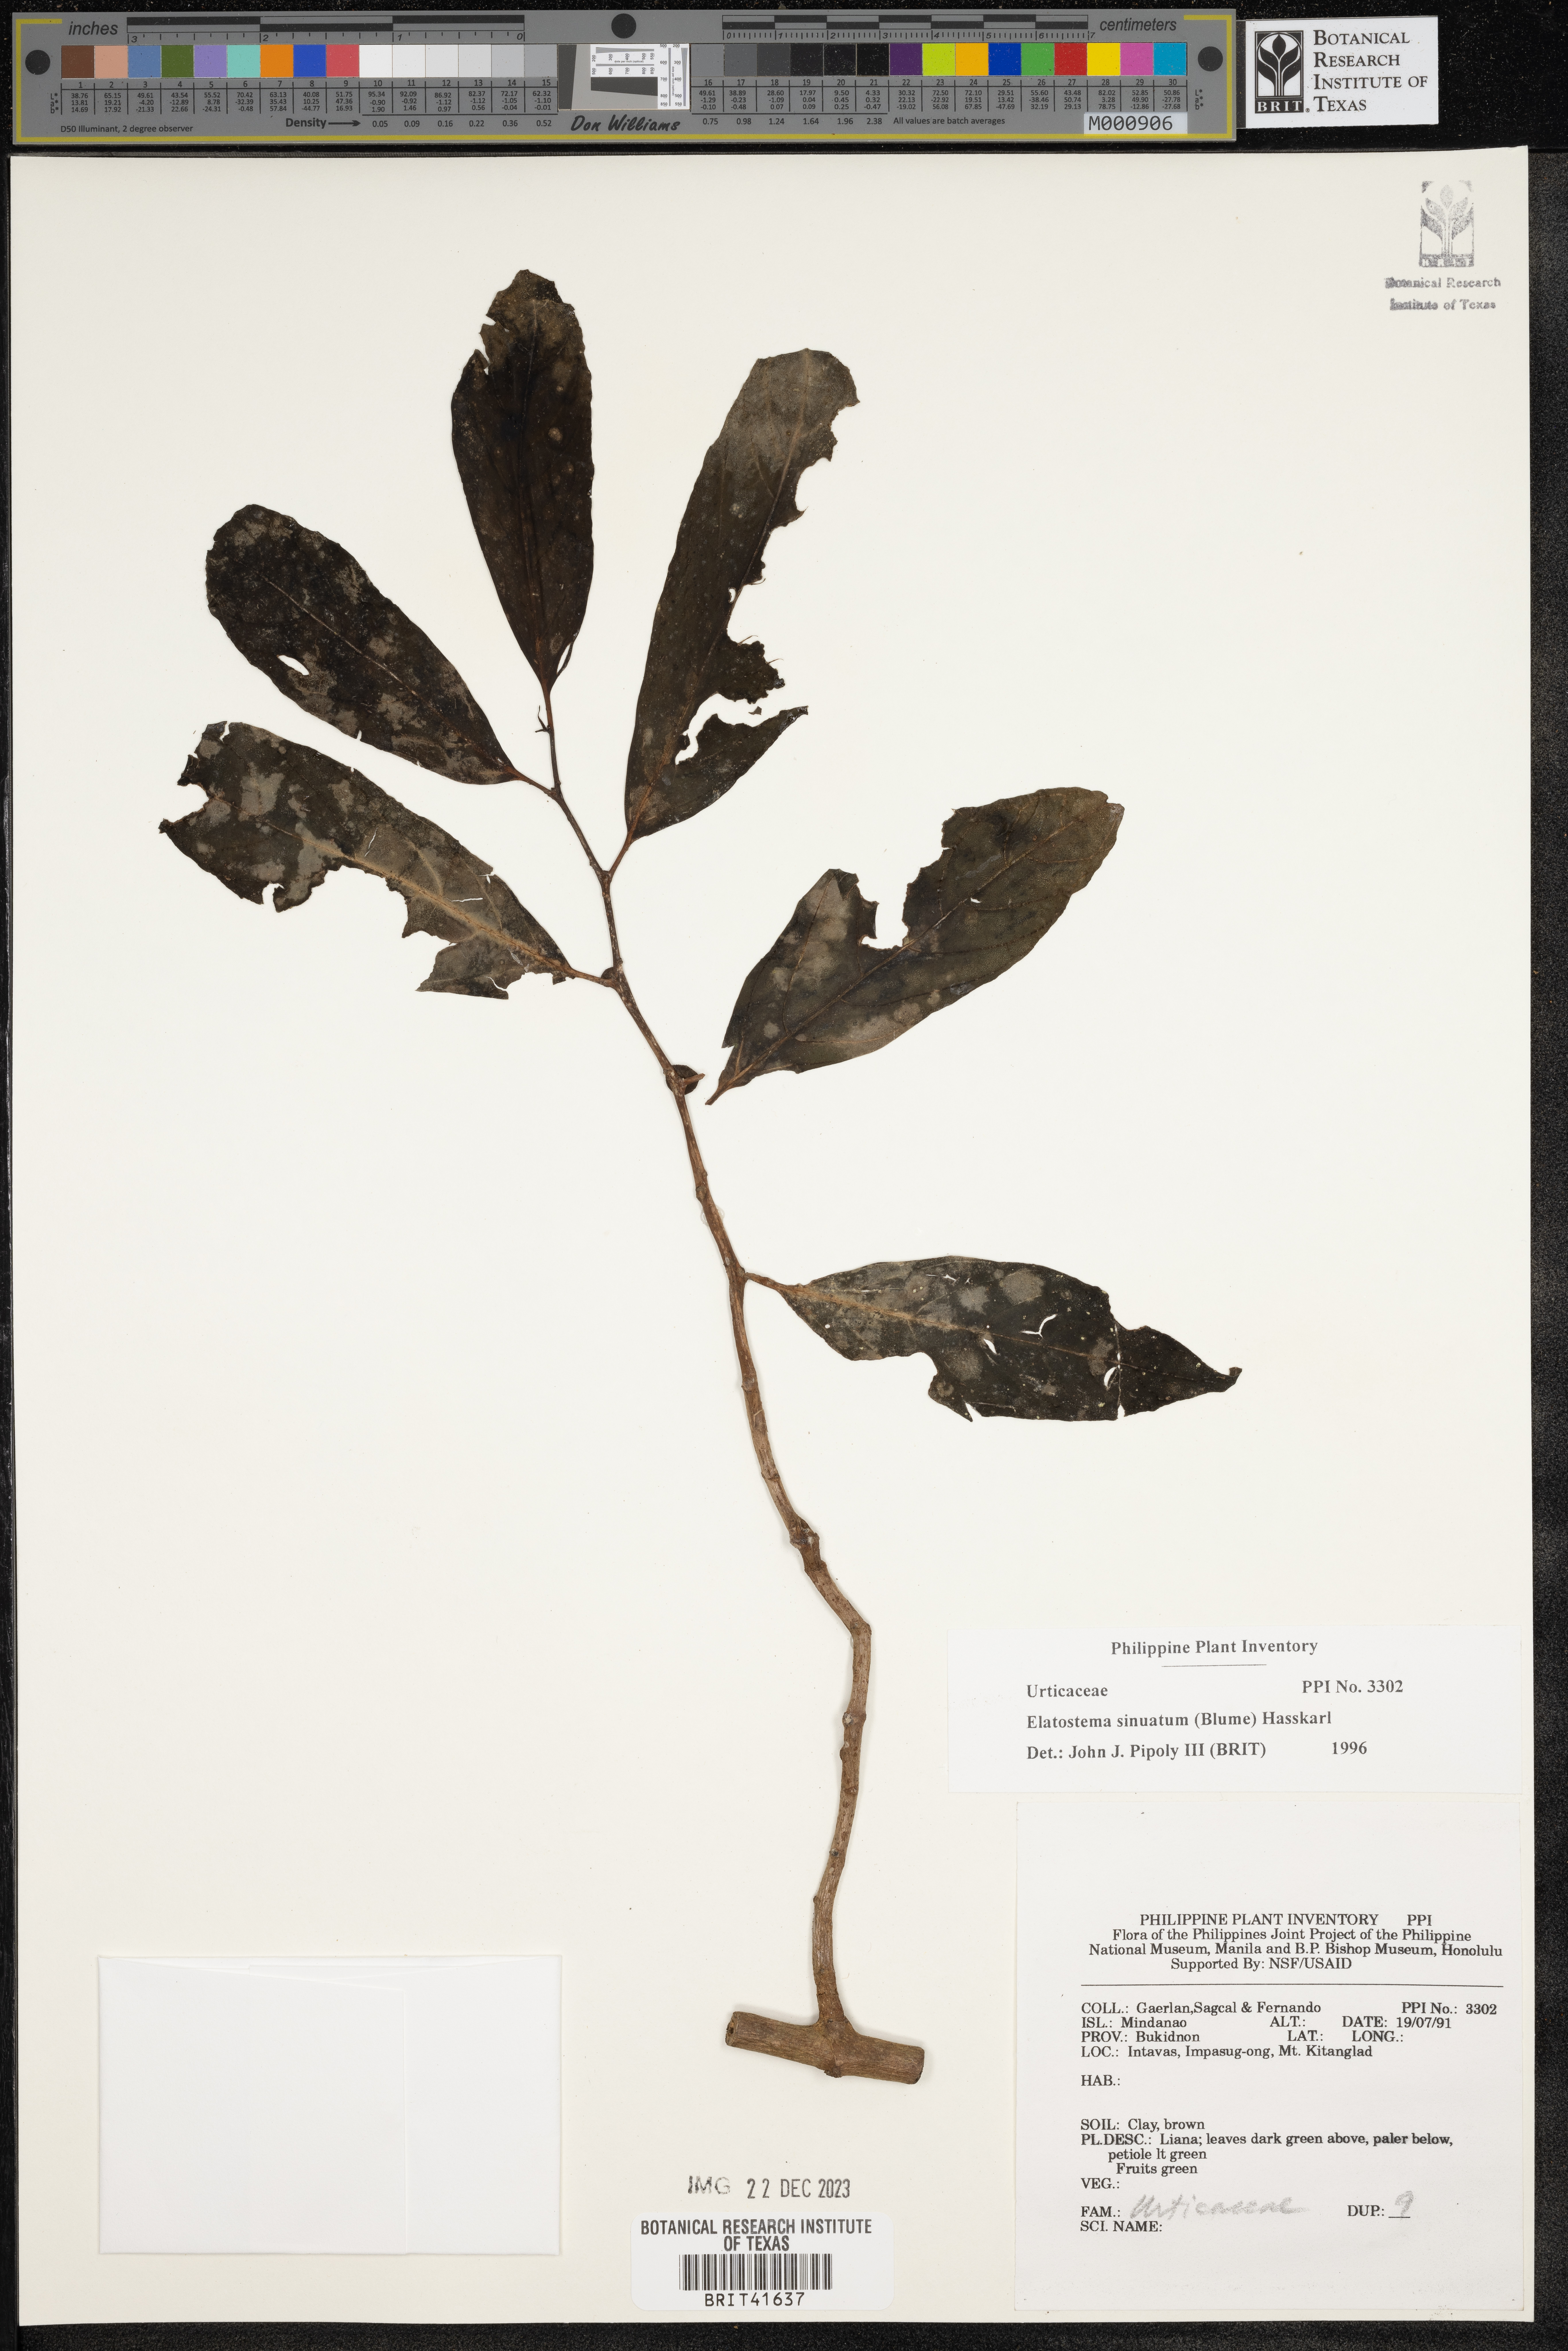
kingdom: Plantae
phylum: Tracheophyta
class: Magnoliopsida
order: Rosales
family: Urticaceae
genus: Elatostema
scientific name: Elatostema sinuatum
